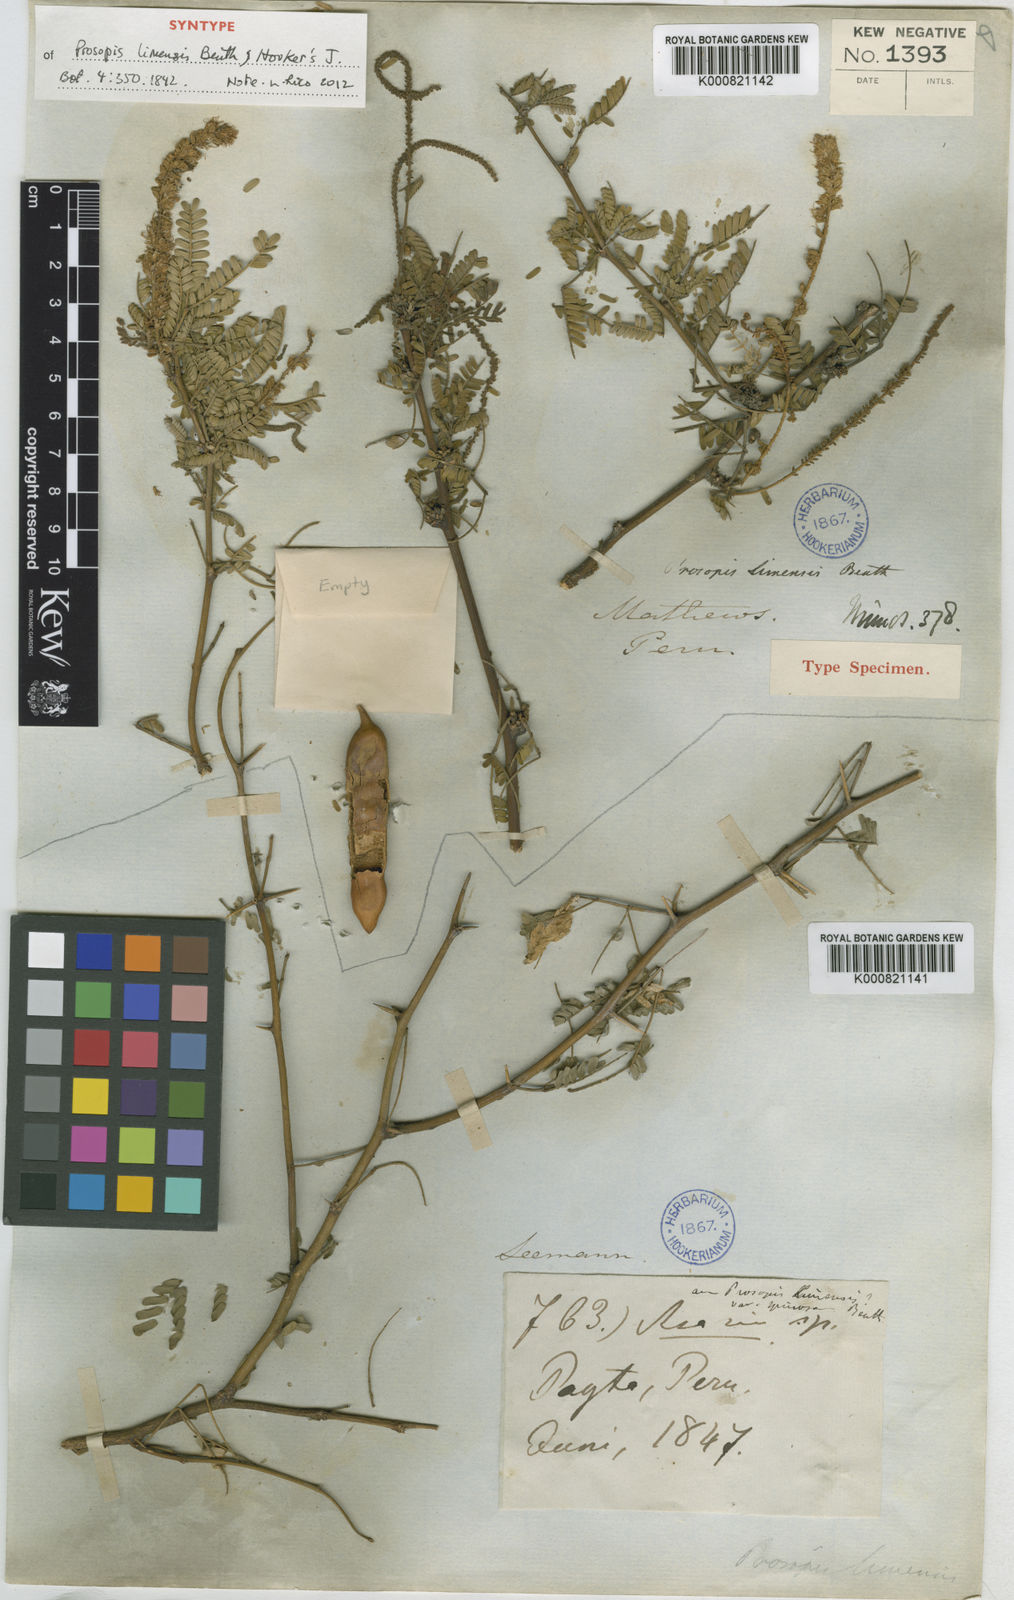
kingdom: Plantae
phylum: Tracheophyta
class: Magnoliopsida
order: Fabales
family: Fabaceae
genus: Prosopis
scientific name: Prosopis limensis
